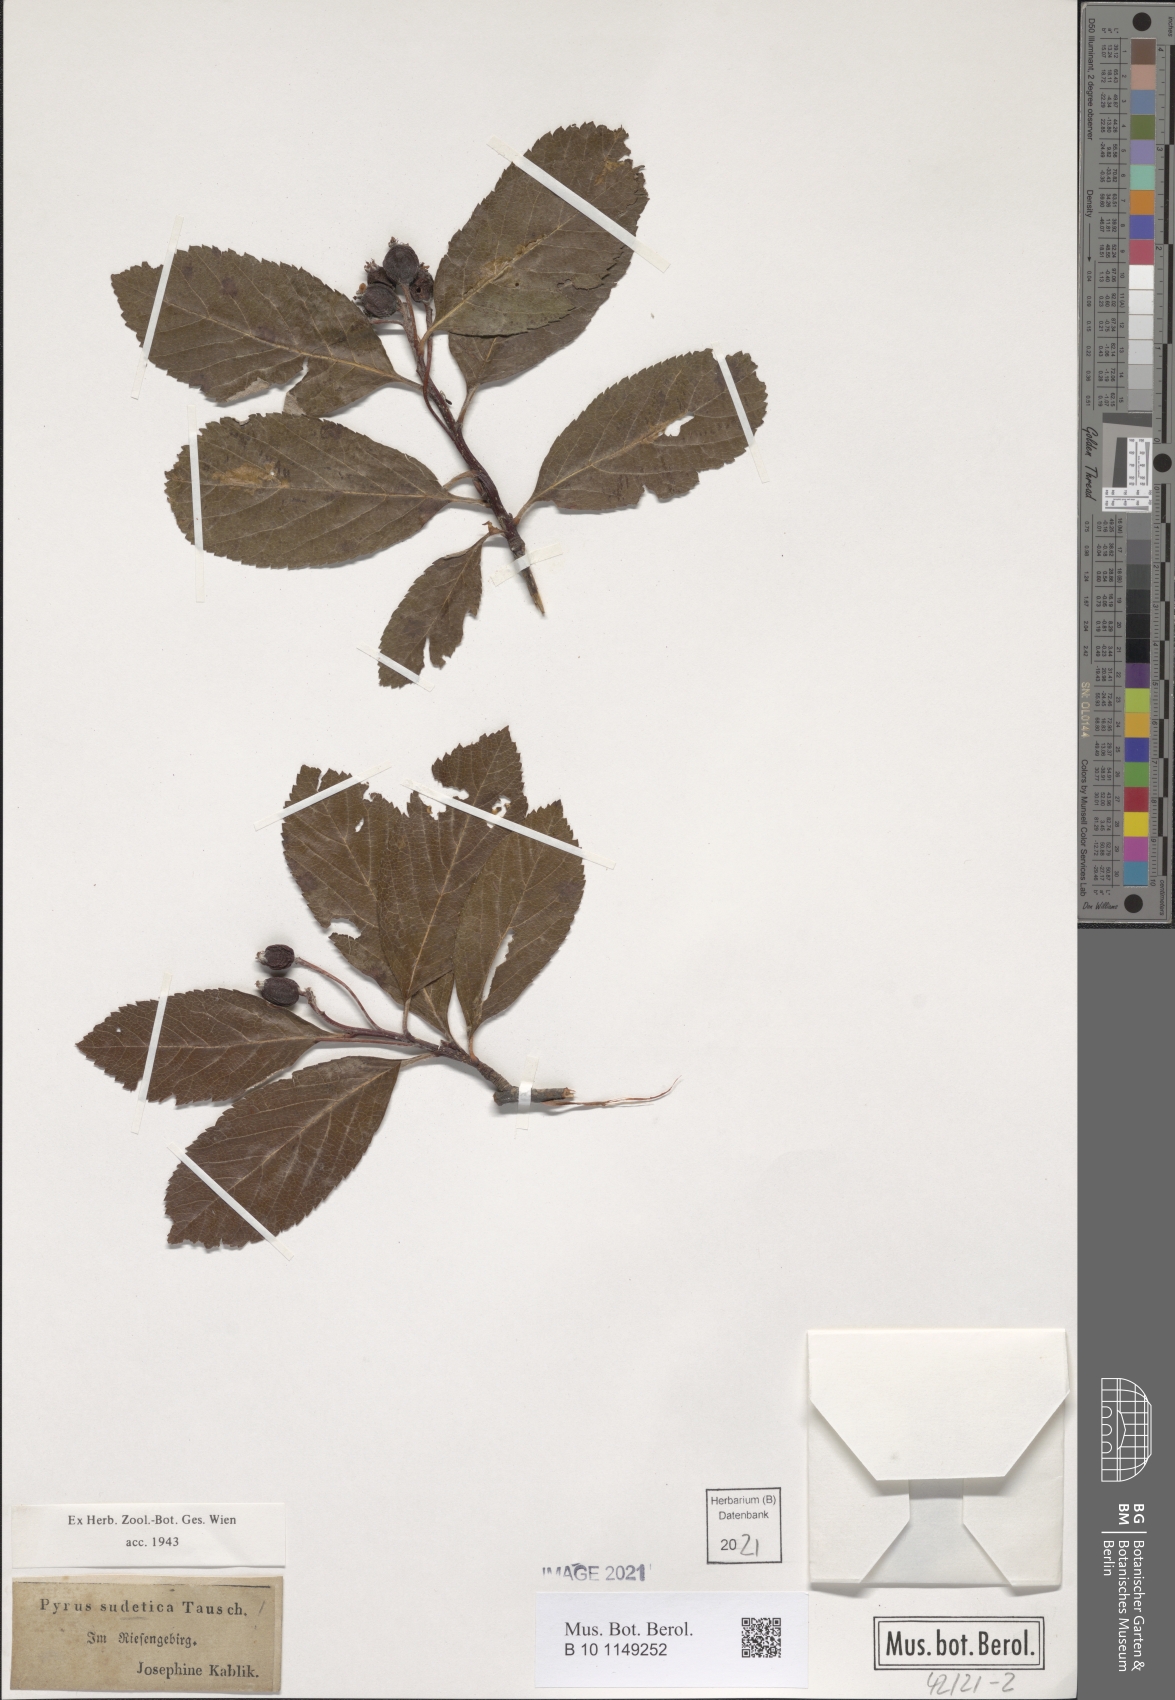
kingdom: Plantae
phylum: Tracheophyta
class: Magnoliopsida
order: Rosales
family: Rosaceae
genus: Sorbus
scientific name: Sorbus sudetica
